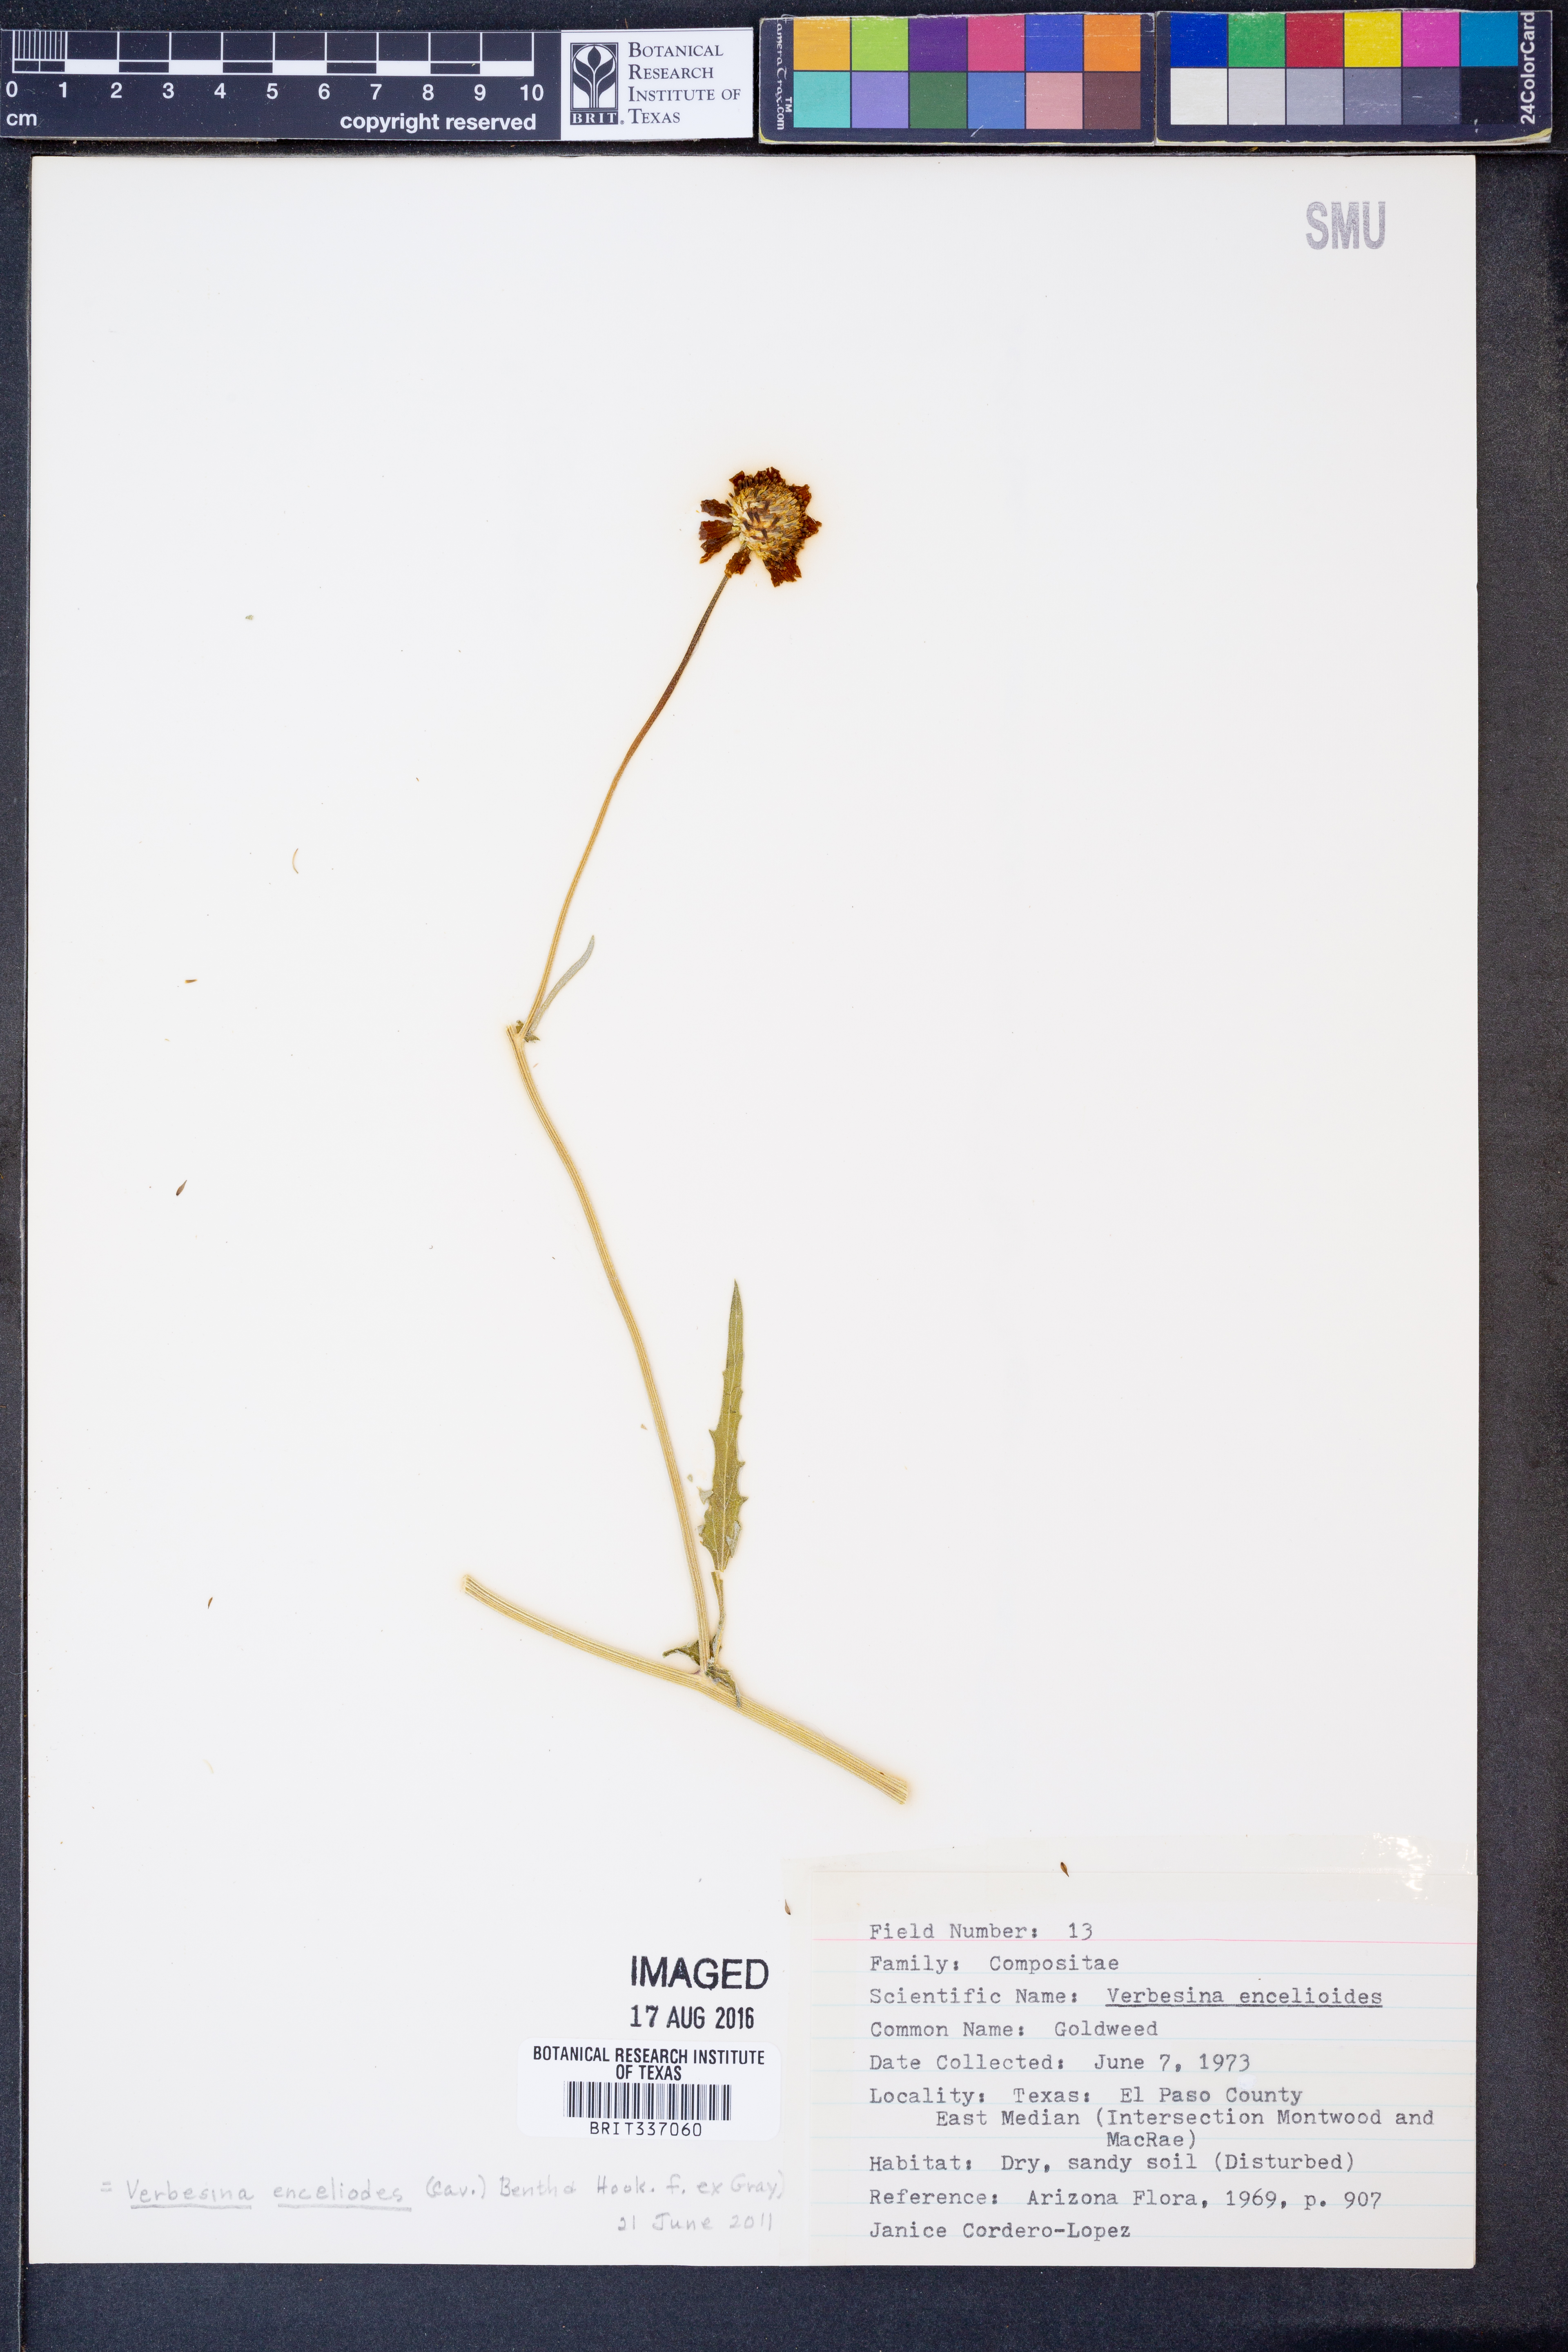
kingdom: Plantae
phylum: Tracheophyta
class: Magnoliopsida
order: Asterales
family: Asteraceae
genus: Verbesina
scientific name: Verbesina encelioides
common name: Golden crownbeard
